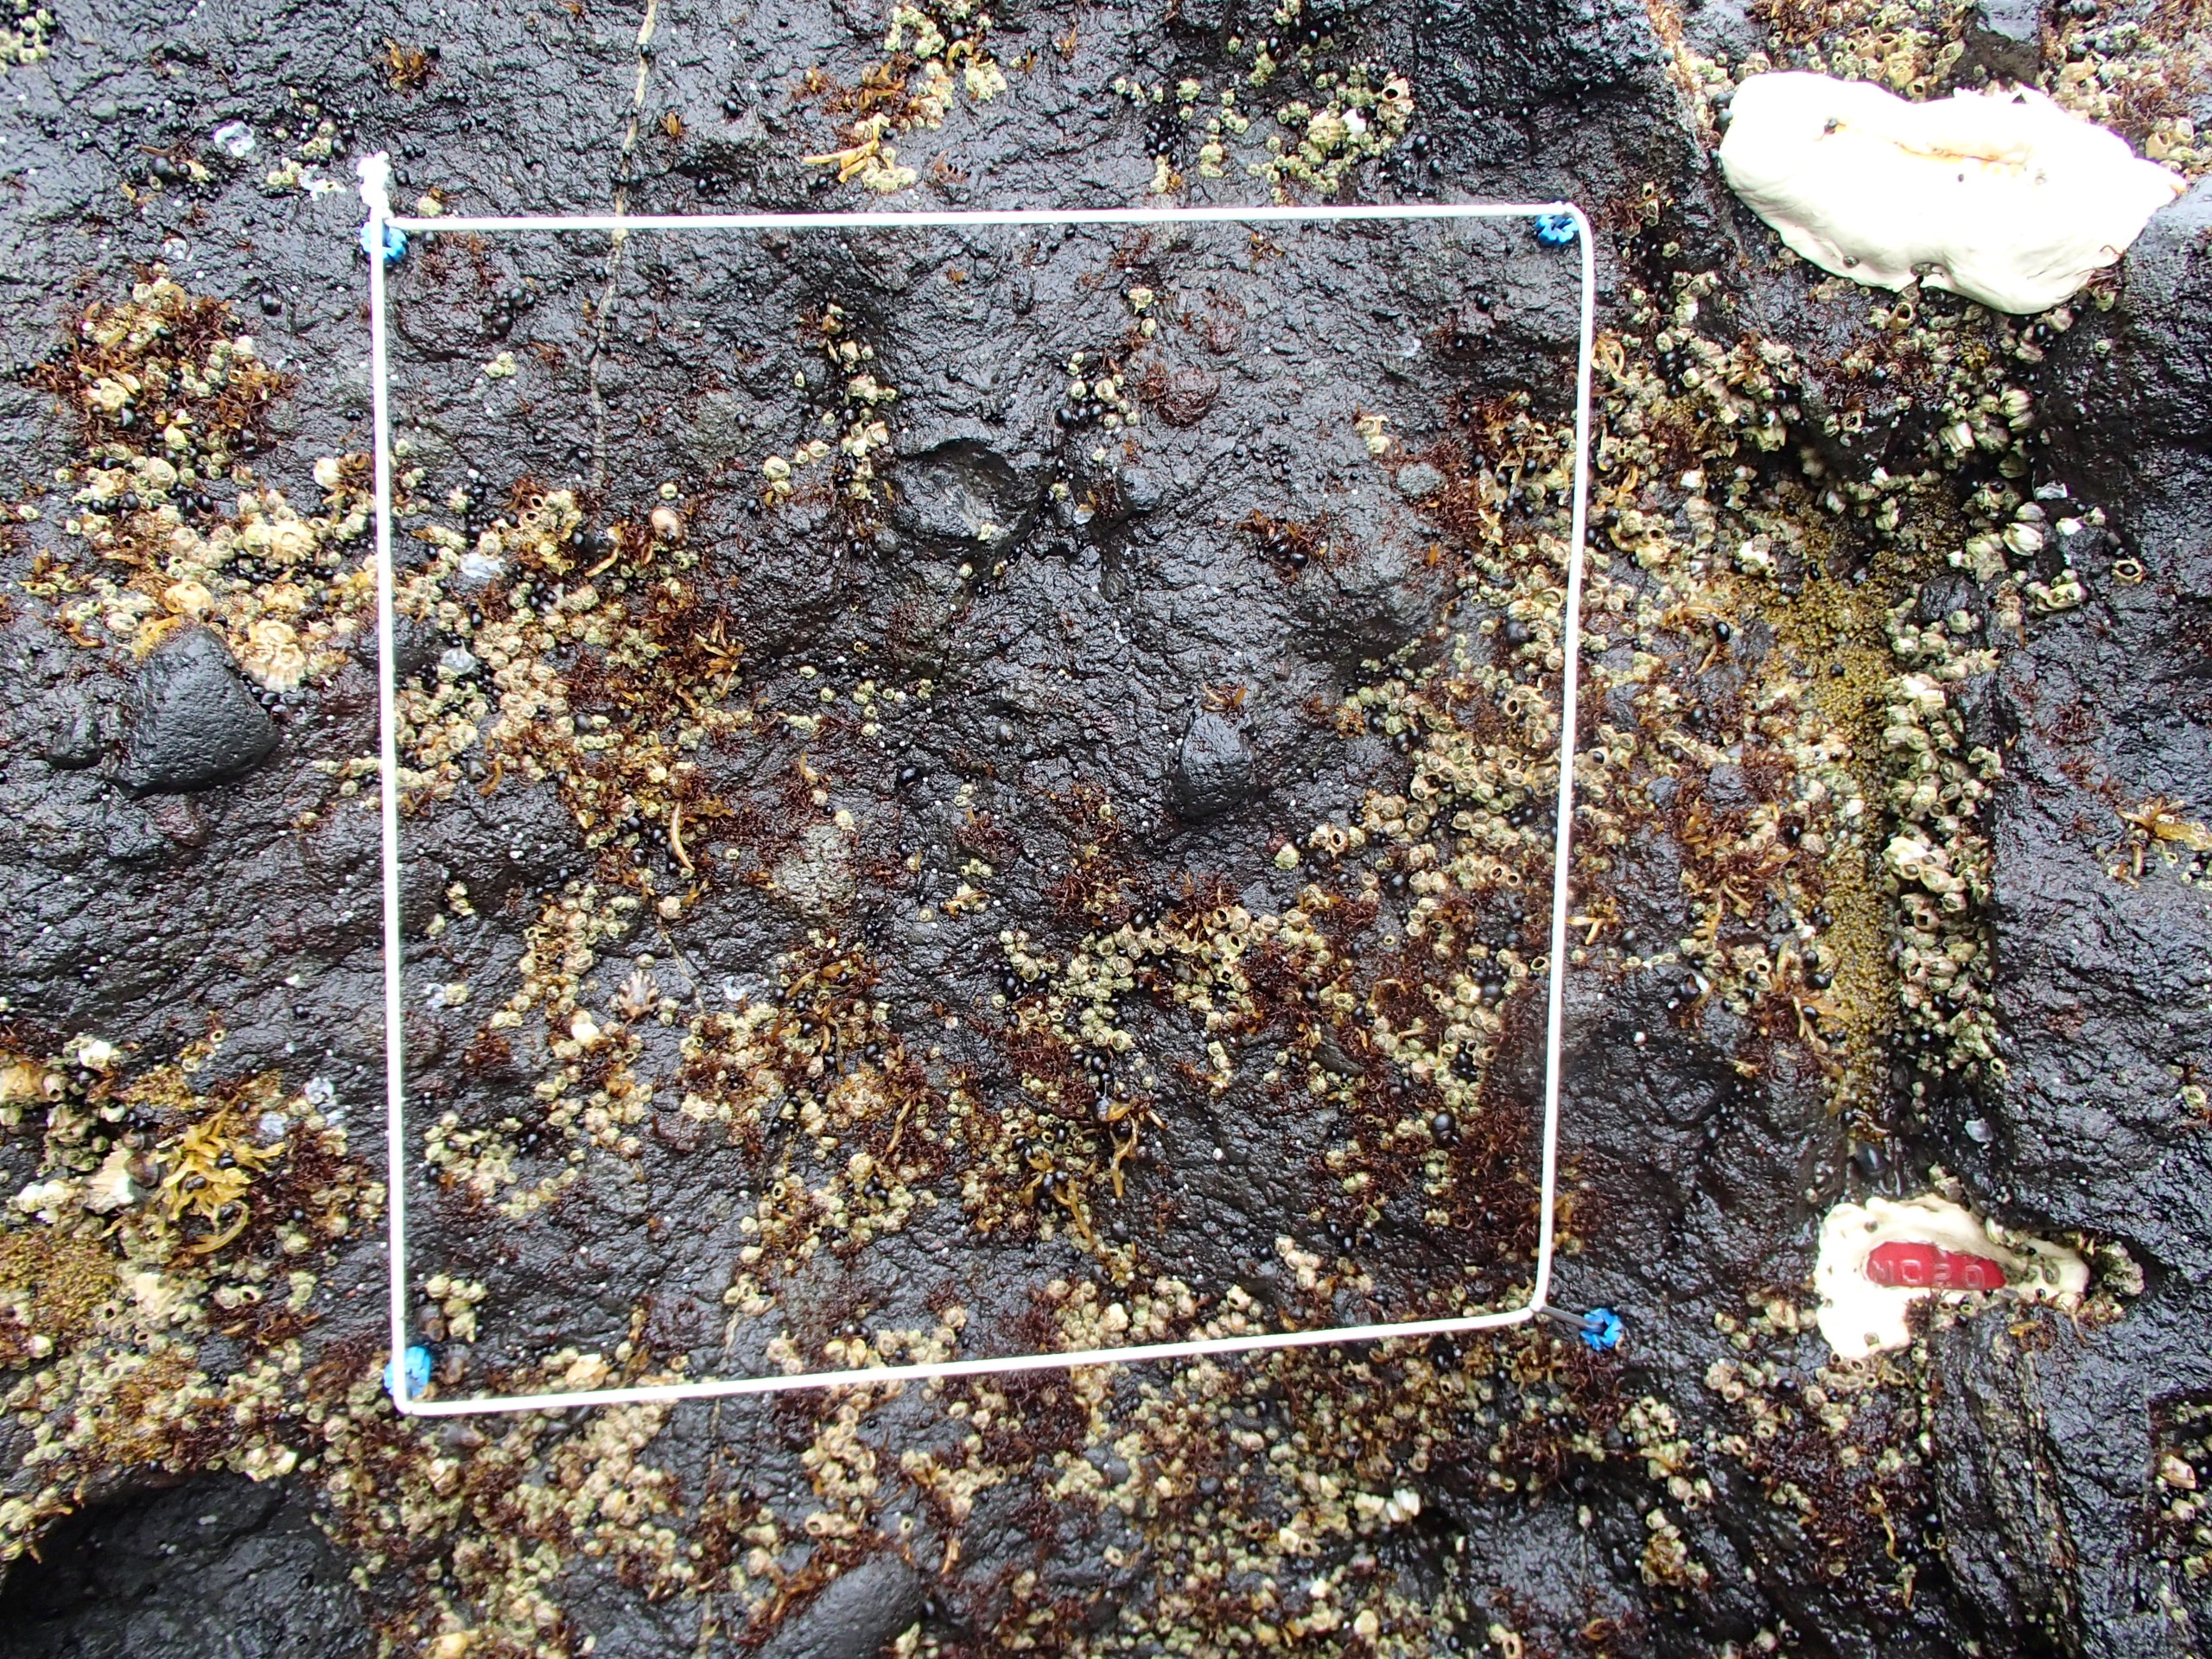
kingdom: Animalia
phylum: Arthropoda
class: Maxillopoda
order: Sessilia
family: Chthamalidae
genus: Chthamalus
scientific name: Chthamalus dalli
